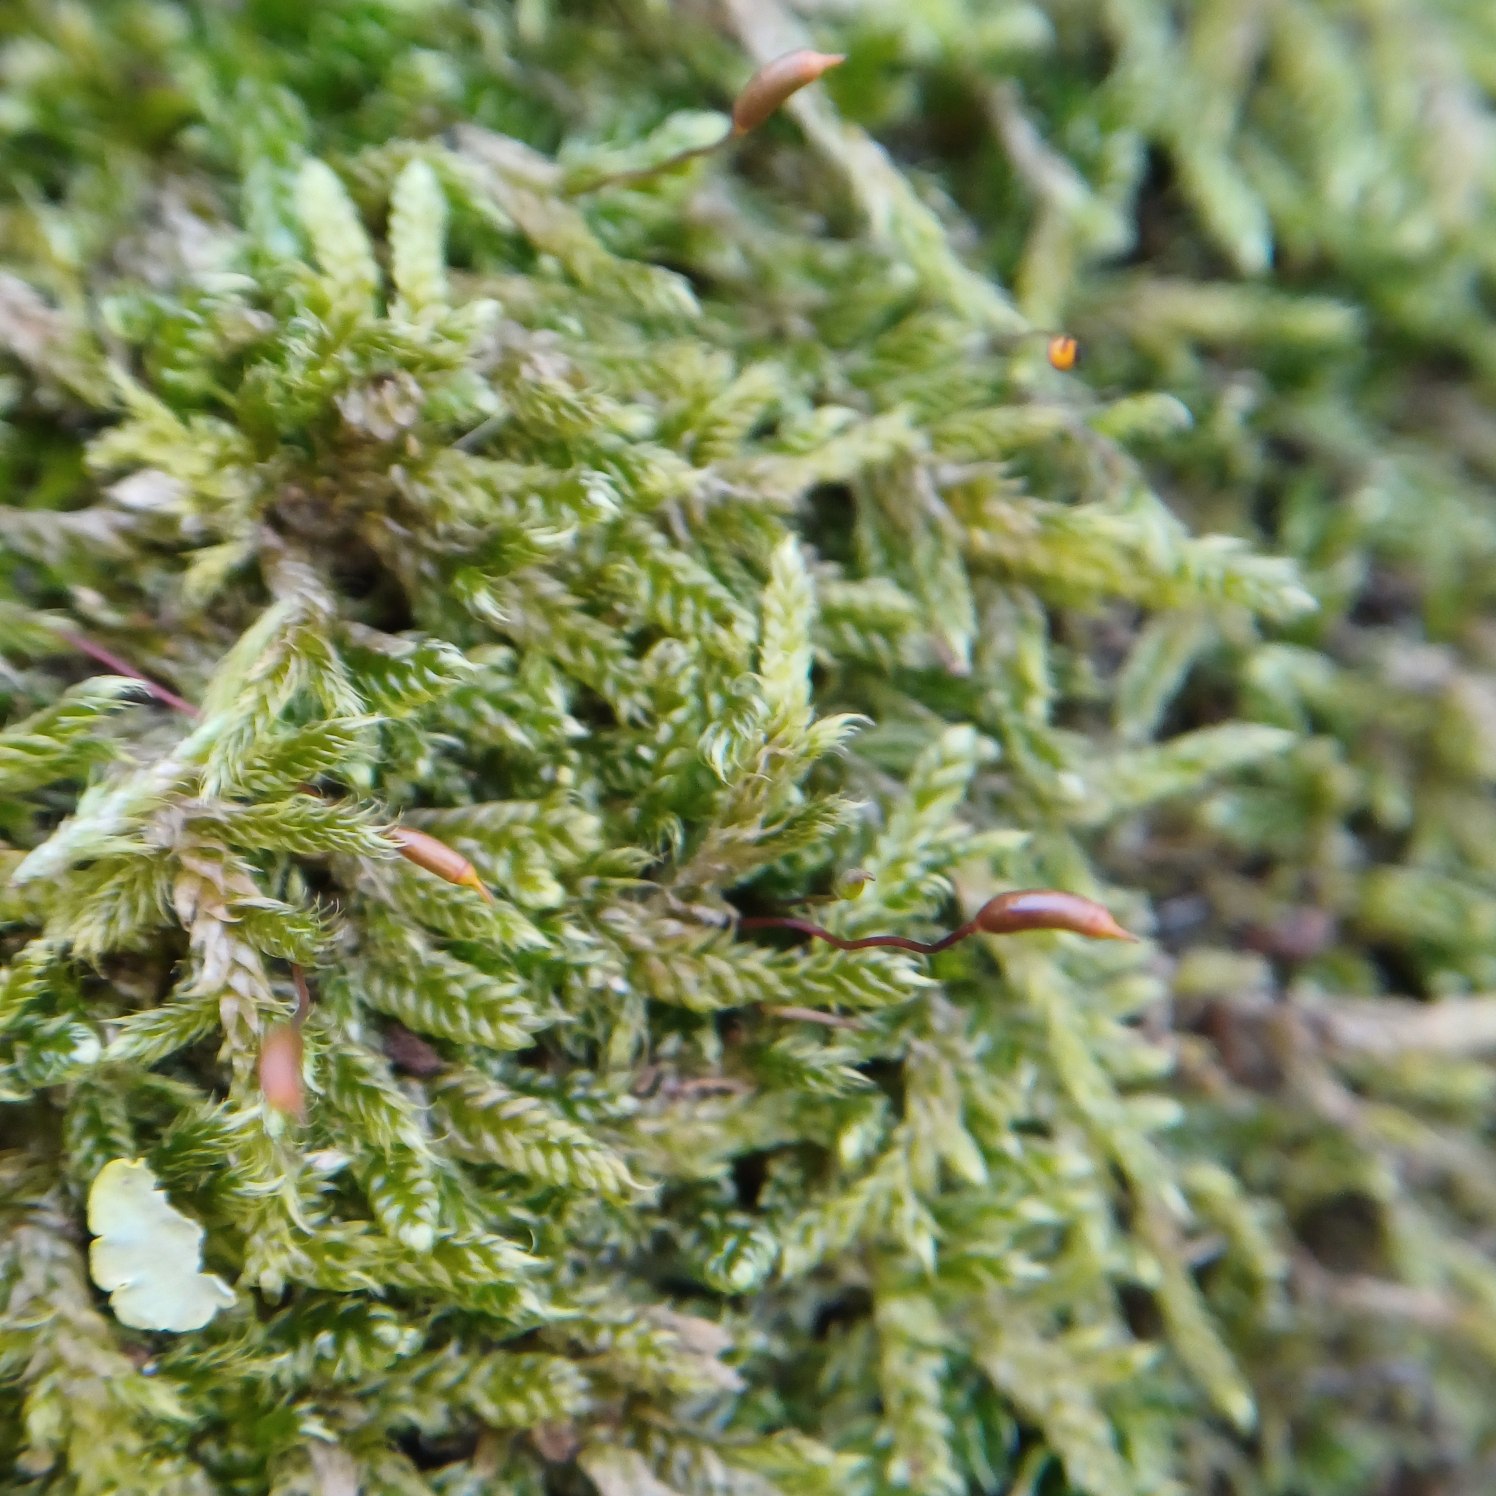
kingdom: Plantae
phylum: Bryophyta
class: Bryopsida
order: Hypnales
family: Hypnaceae
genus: Hypnum
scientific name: Hypnum cupressiforme
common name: Almindelig cypresmos
